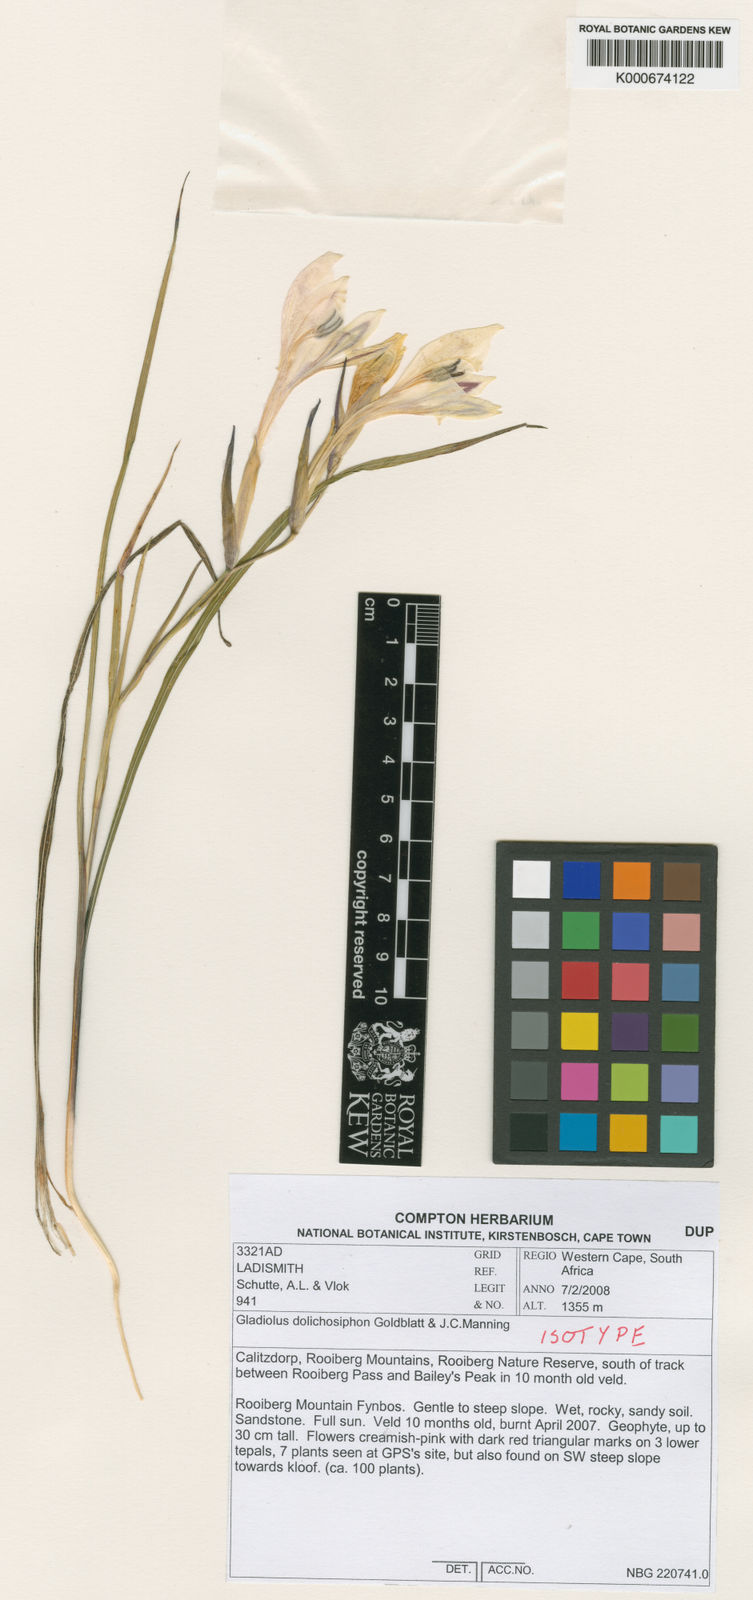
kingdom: Plantae
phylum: Tracheophyta
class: Liliopsida
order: Asparagales
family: Iridaceae
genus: Gladiolus
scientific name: Gladiolus dolichosiphon
